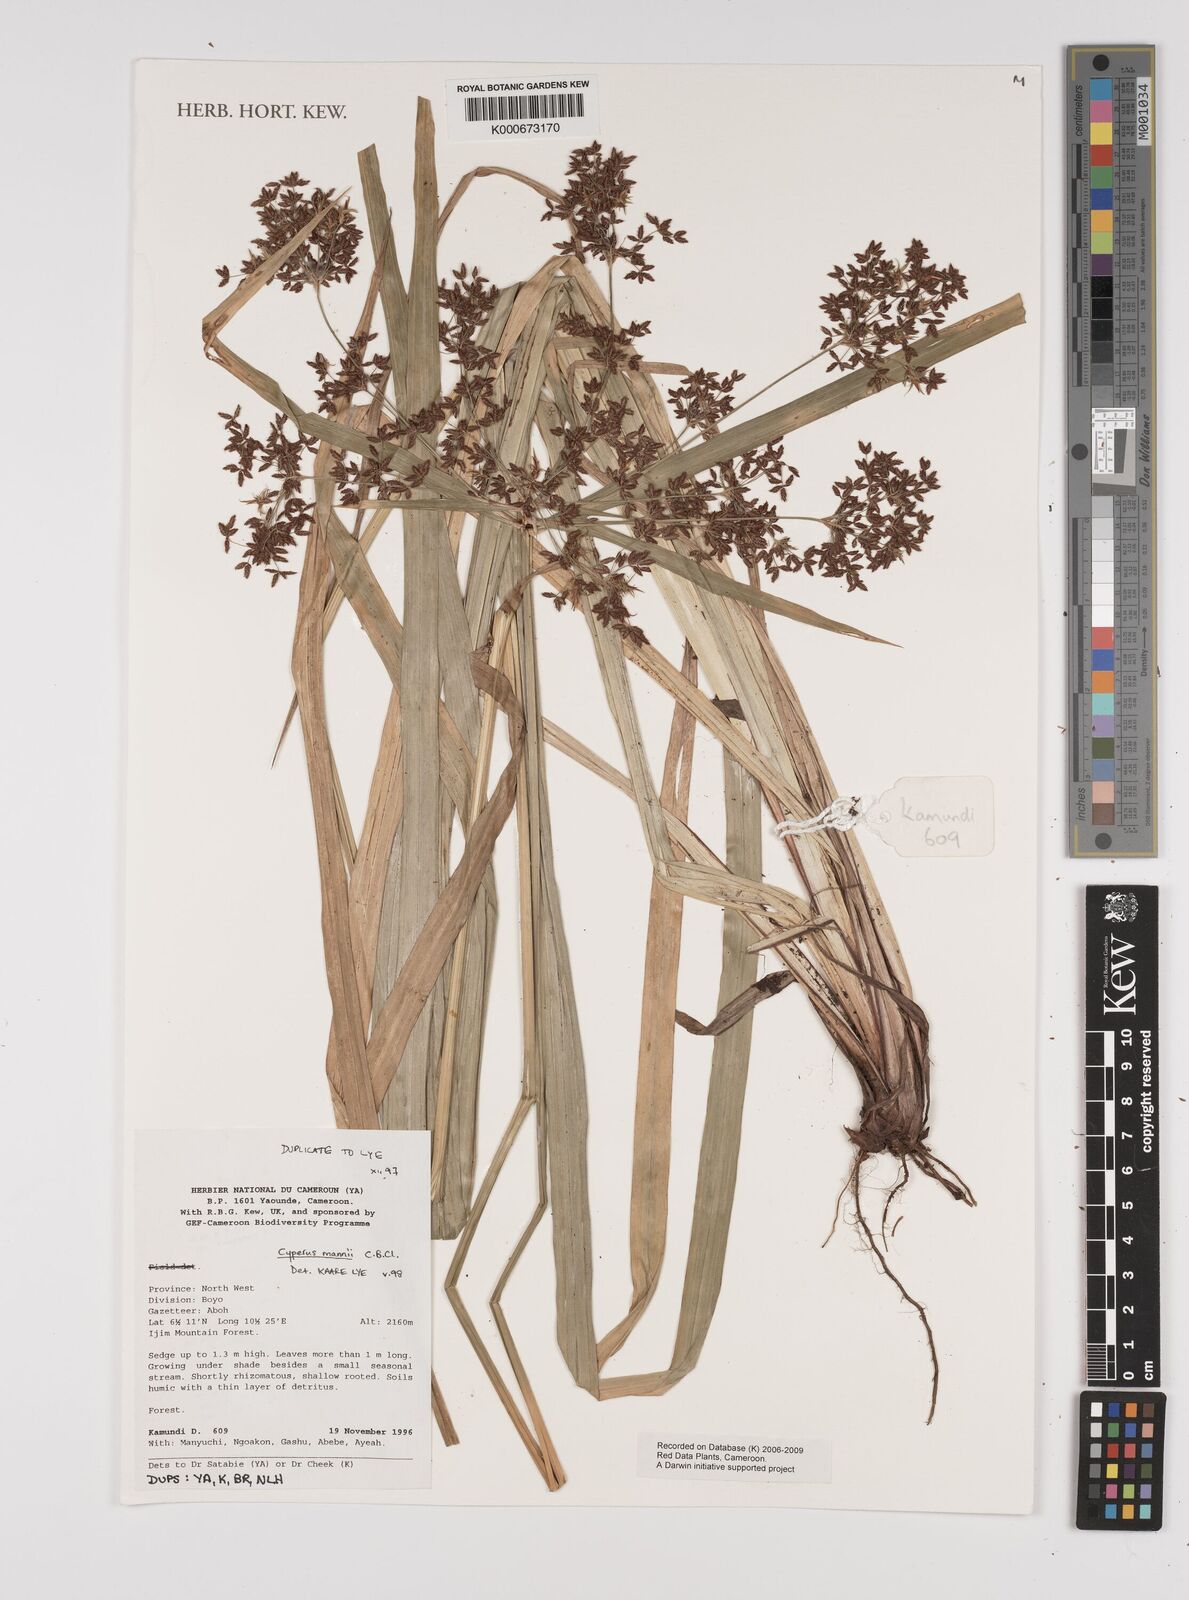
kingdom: Plantae
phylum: Tracheophyta
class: Liliopsida
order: Poales
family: Cyperaceae
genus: Cyperus
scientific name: Cyperus baronii
